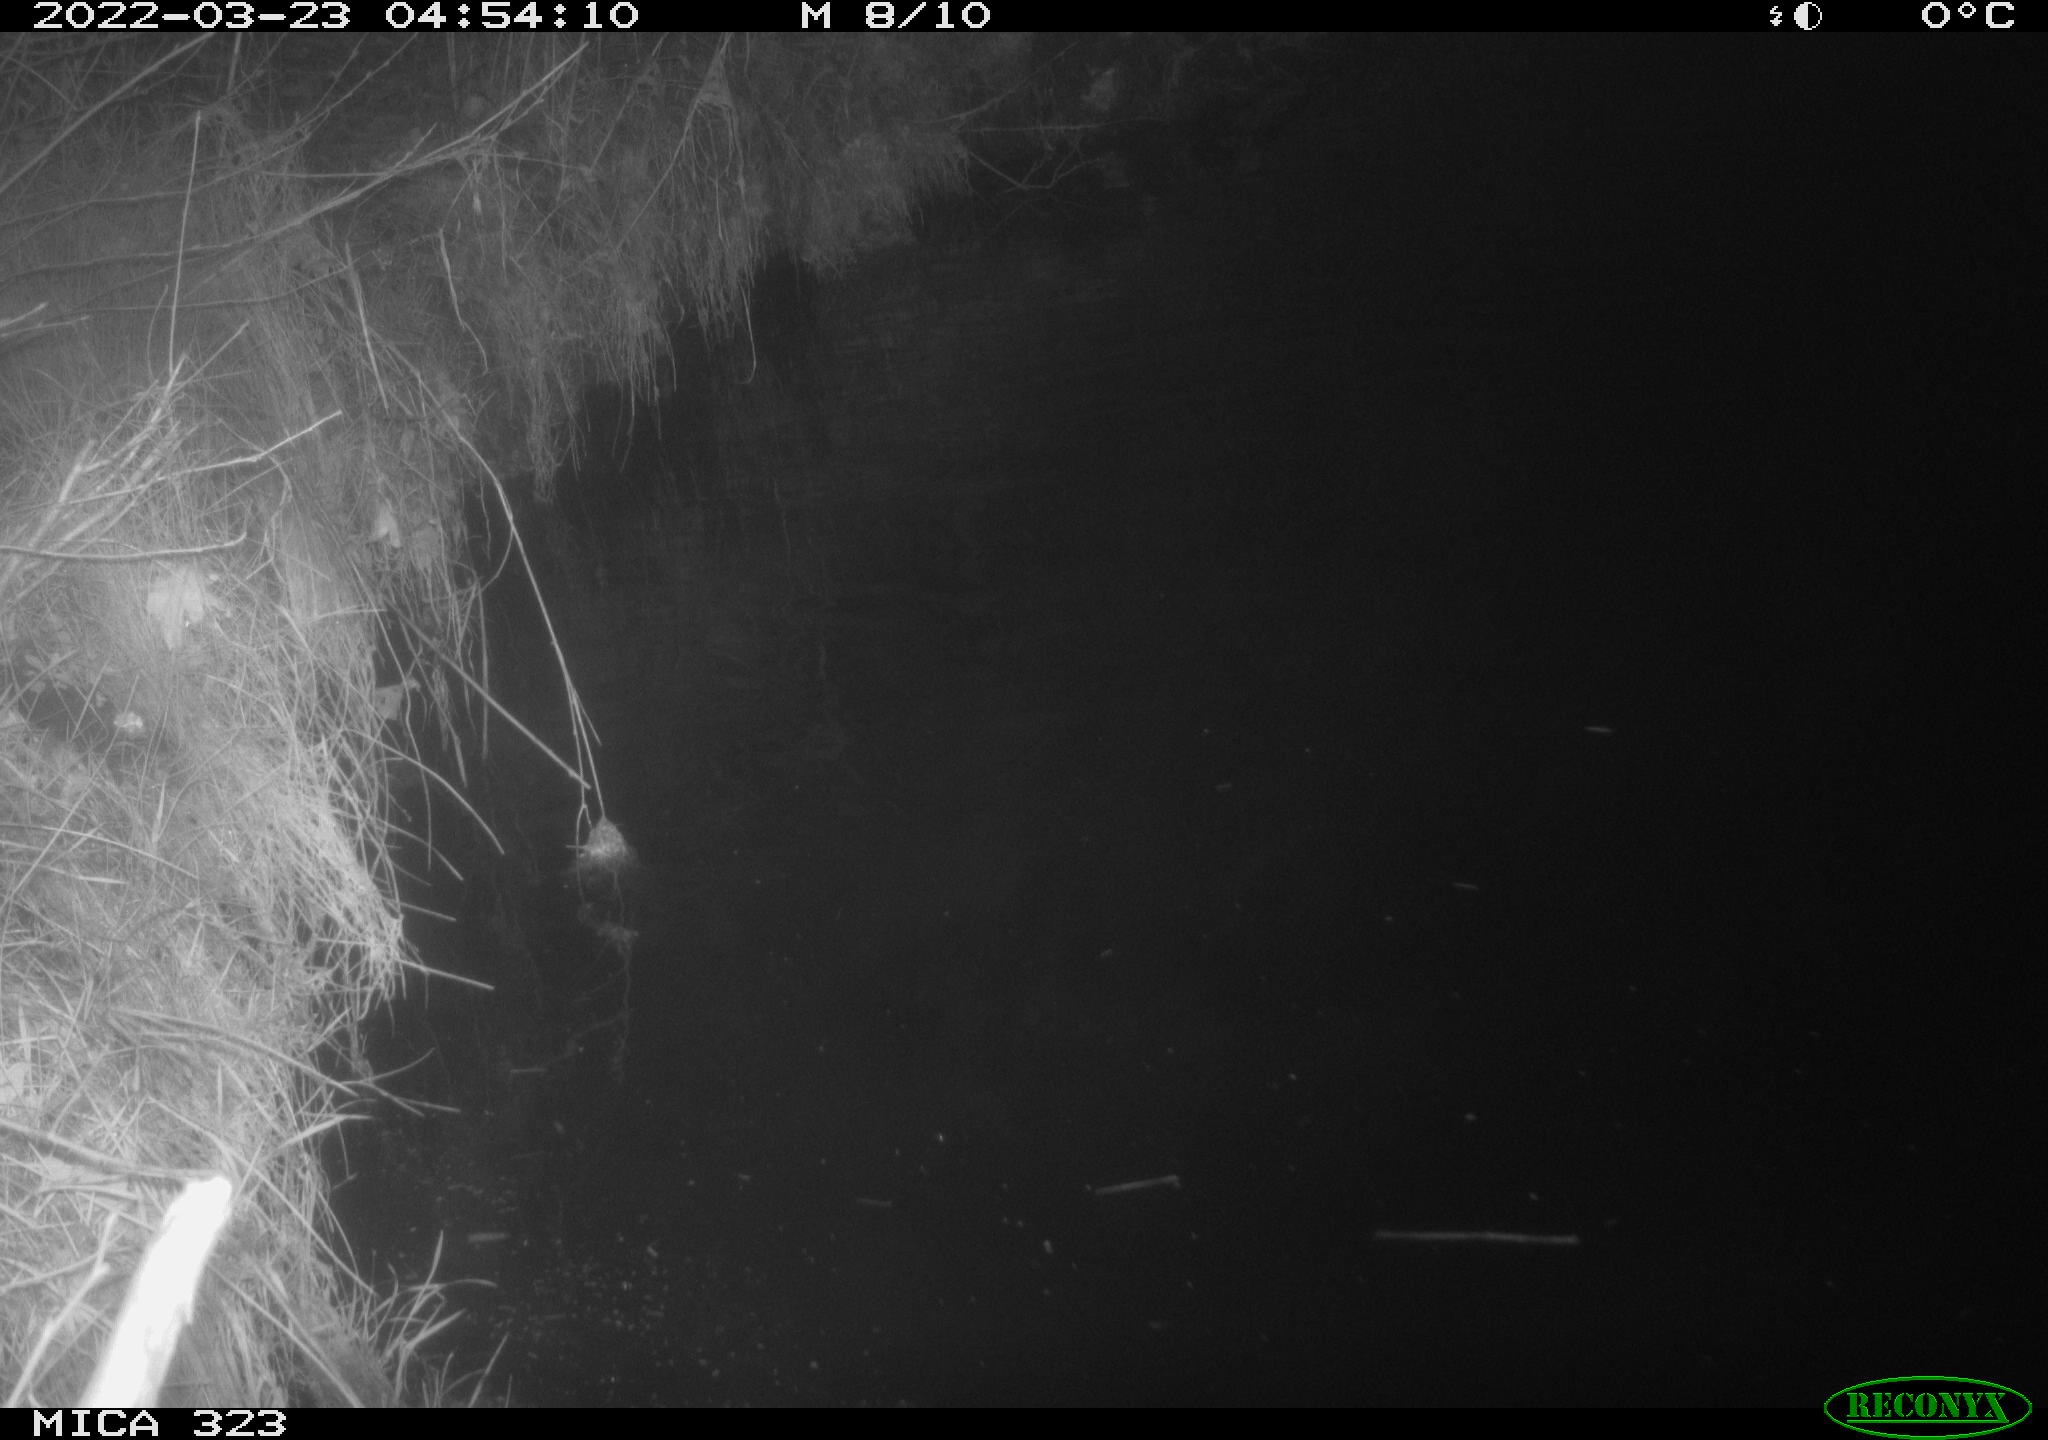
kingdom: Animalia
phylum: Chordata
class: Aves
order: Anseriformes
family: Anatidae
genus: Anas
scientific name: Anas platyrhynchos
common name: Mallard
